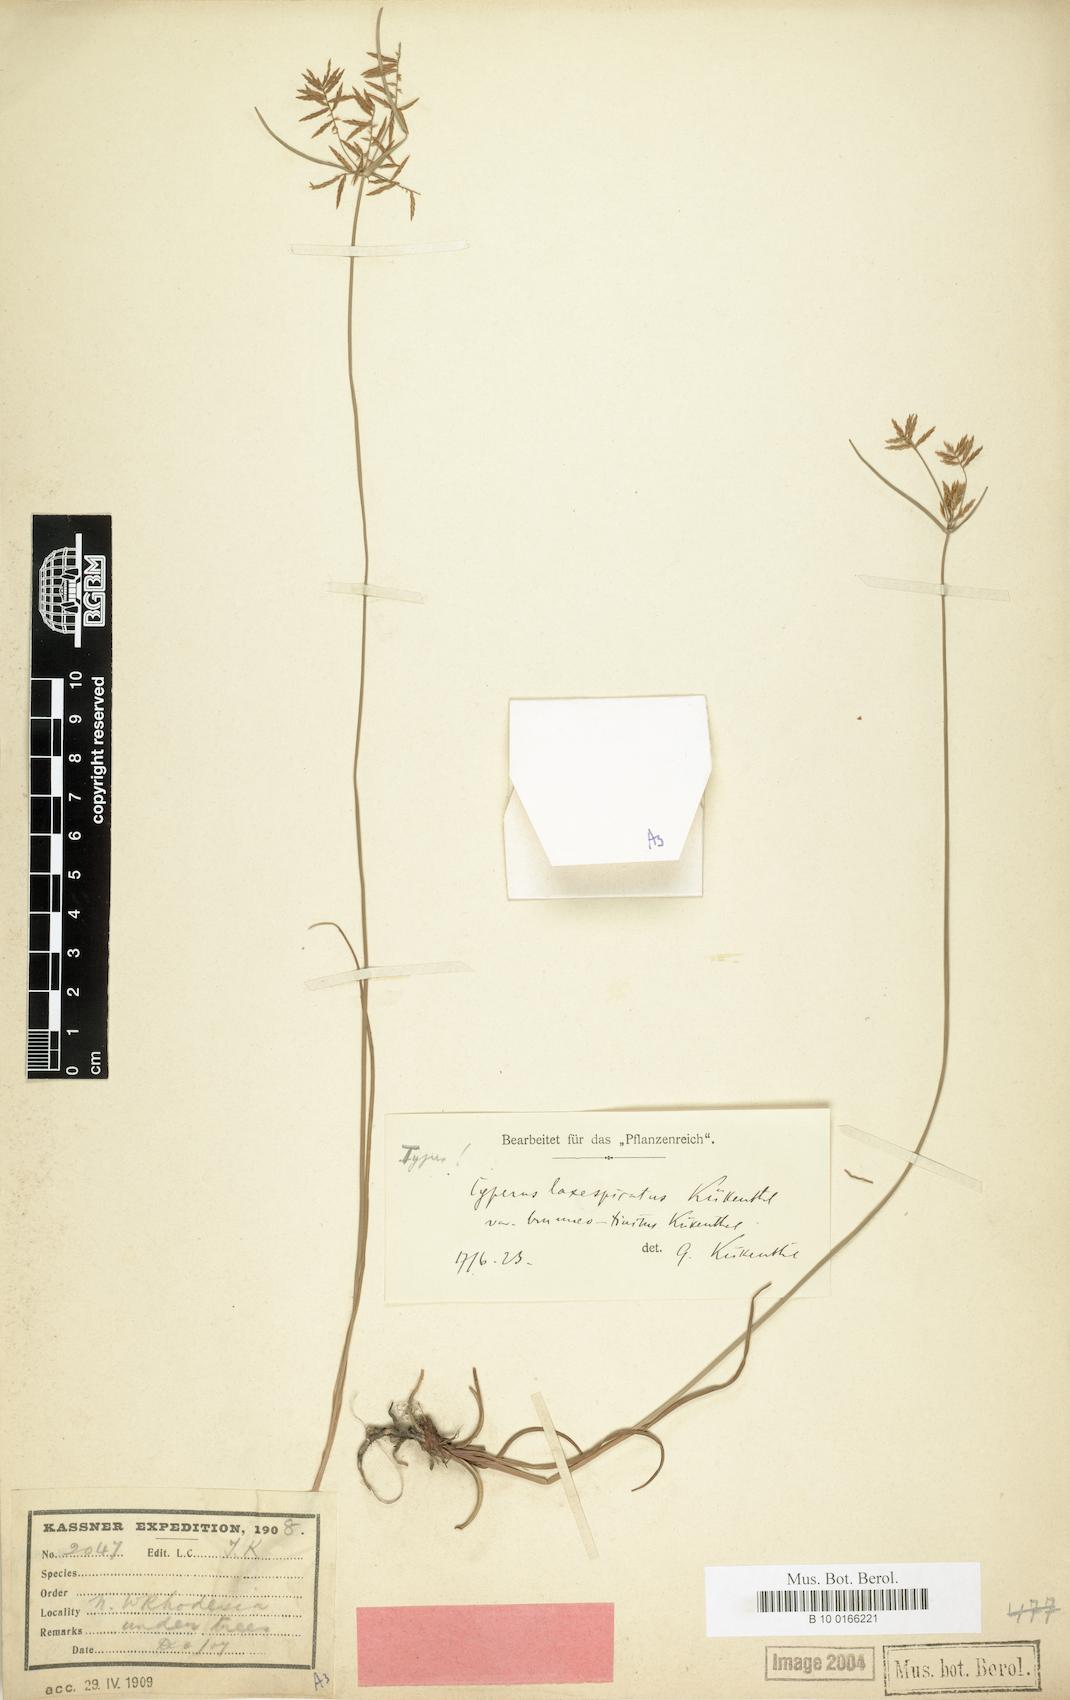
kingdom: Plantae
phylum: Tracheophyta
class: Liliopsida
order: Poales
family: Cyperaceae
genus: Cyperus
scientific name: Cyperus intactus
